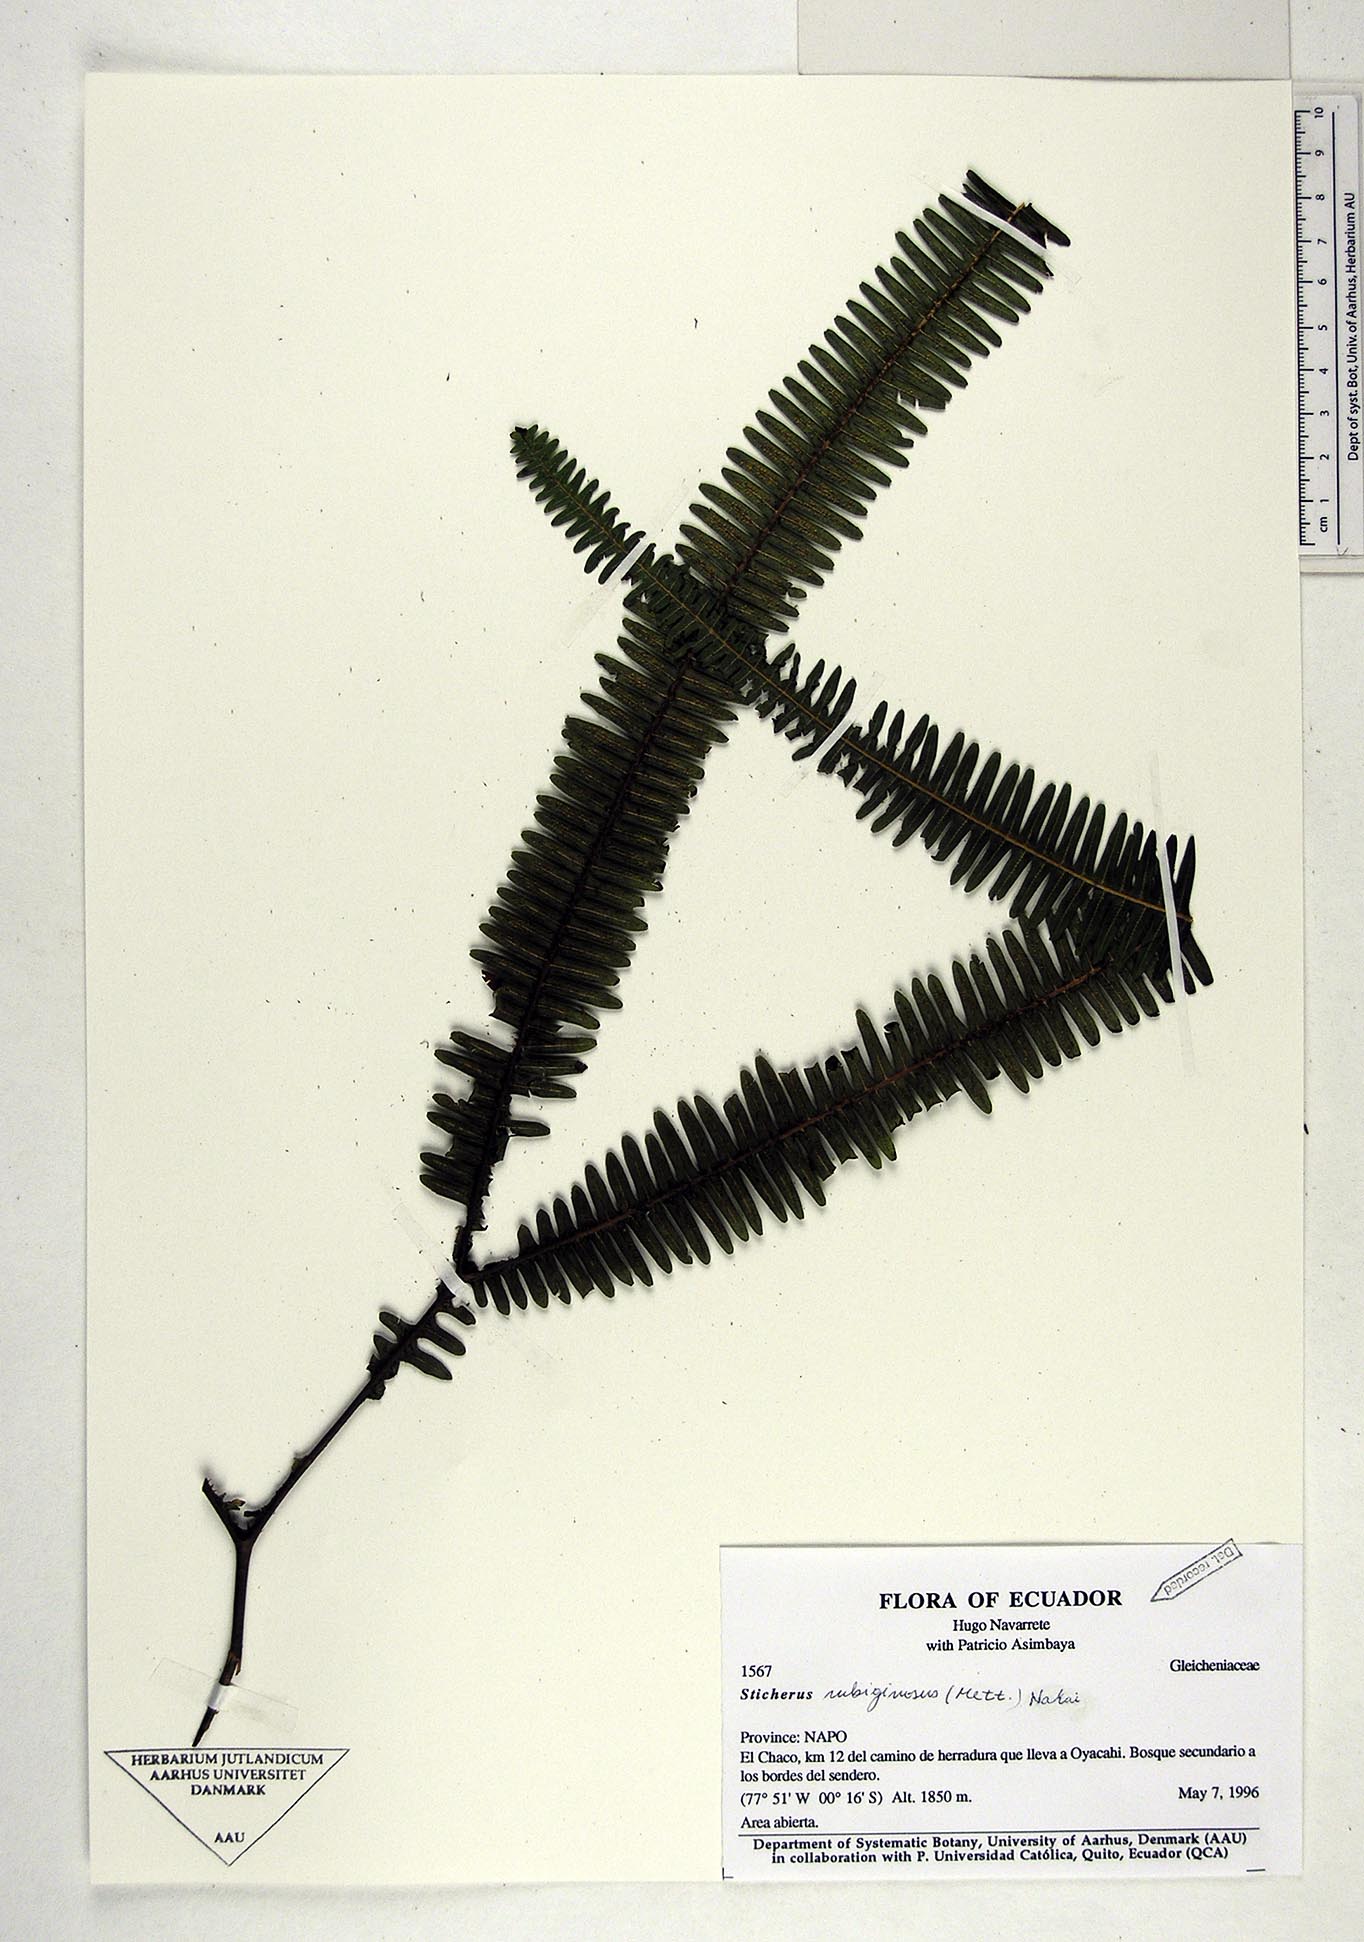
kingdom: Plantae
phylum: Tracheophyta
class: Polypodiopsida
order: Gleicheniales
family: Gleicheniaceae
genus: Sticherus
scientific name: Sticherus rubiginosus
